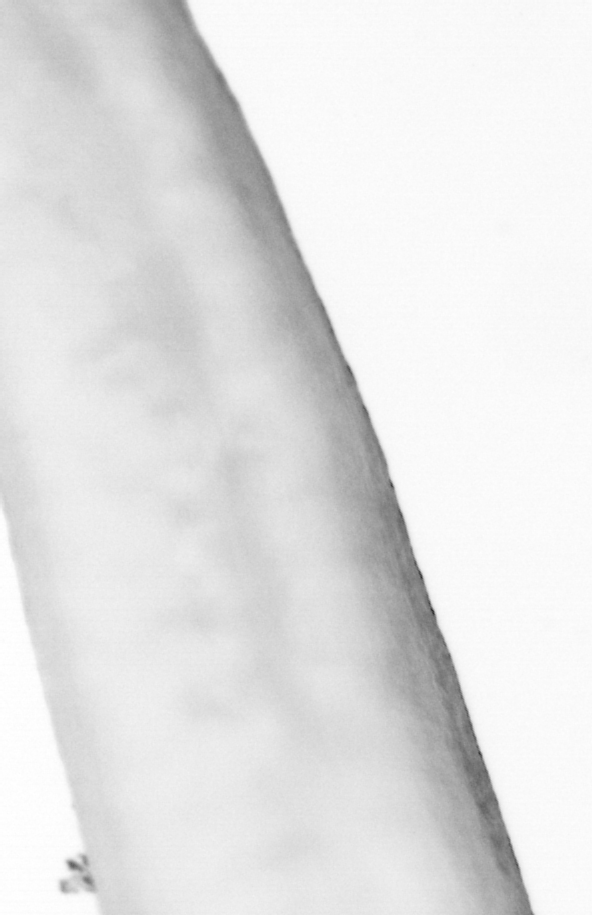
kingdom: Animalia
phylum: Chordata
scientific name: Chordata
